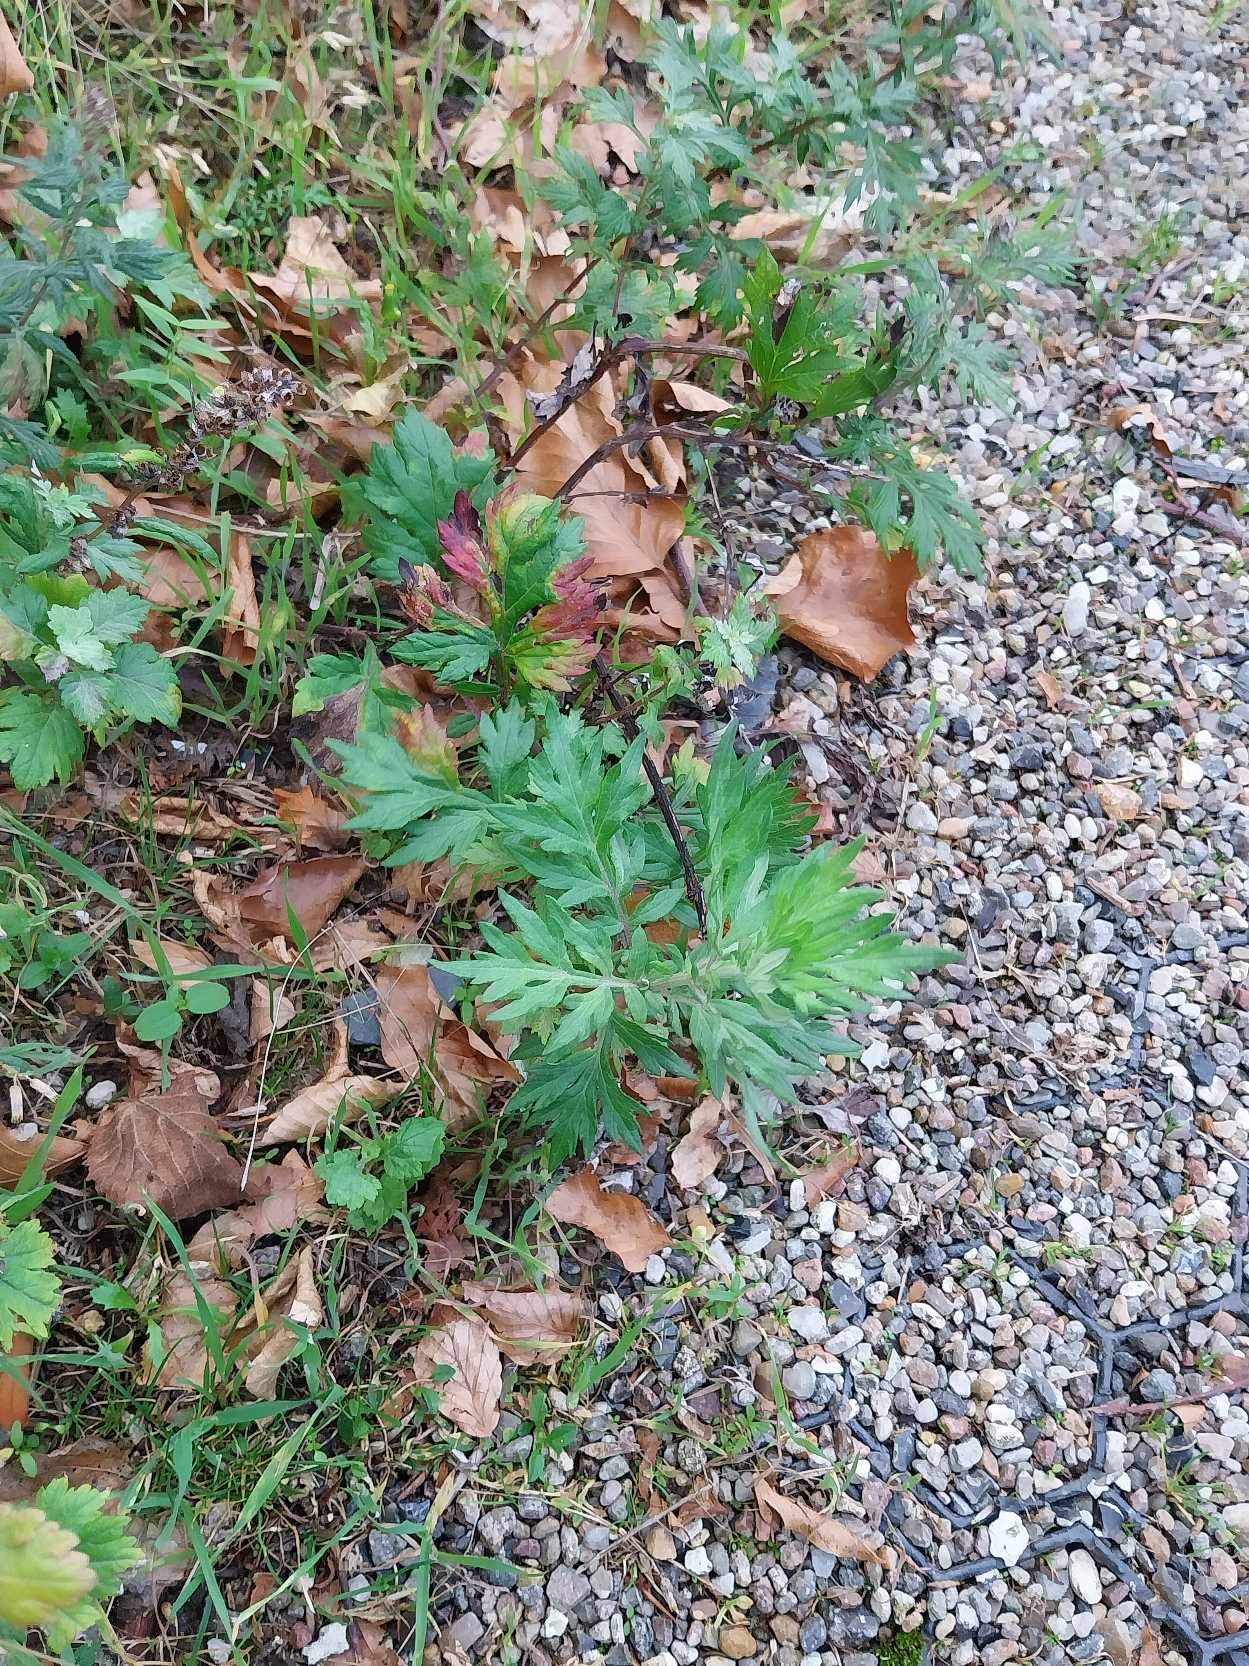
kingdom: Plantae
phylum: Tracheophyta
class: Magnoliopsida
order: Asterales
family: Asteraceae
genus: Artemisia
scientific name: Artemisia vulgaris
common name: Grå-bynke
